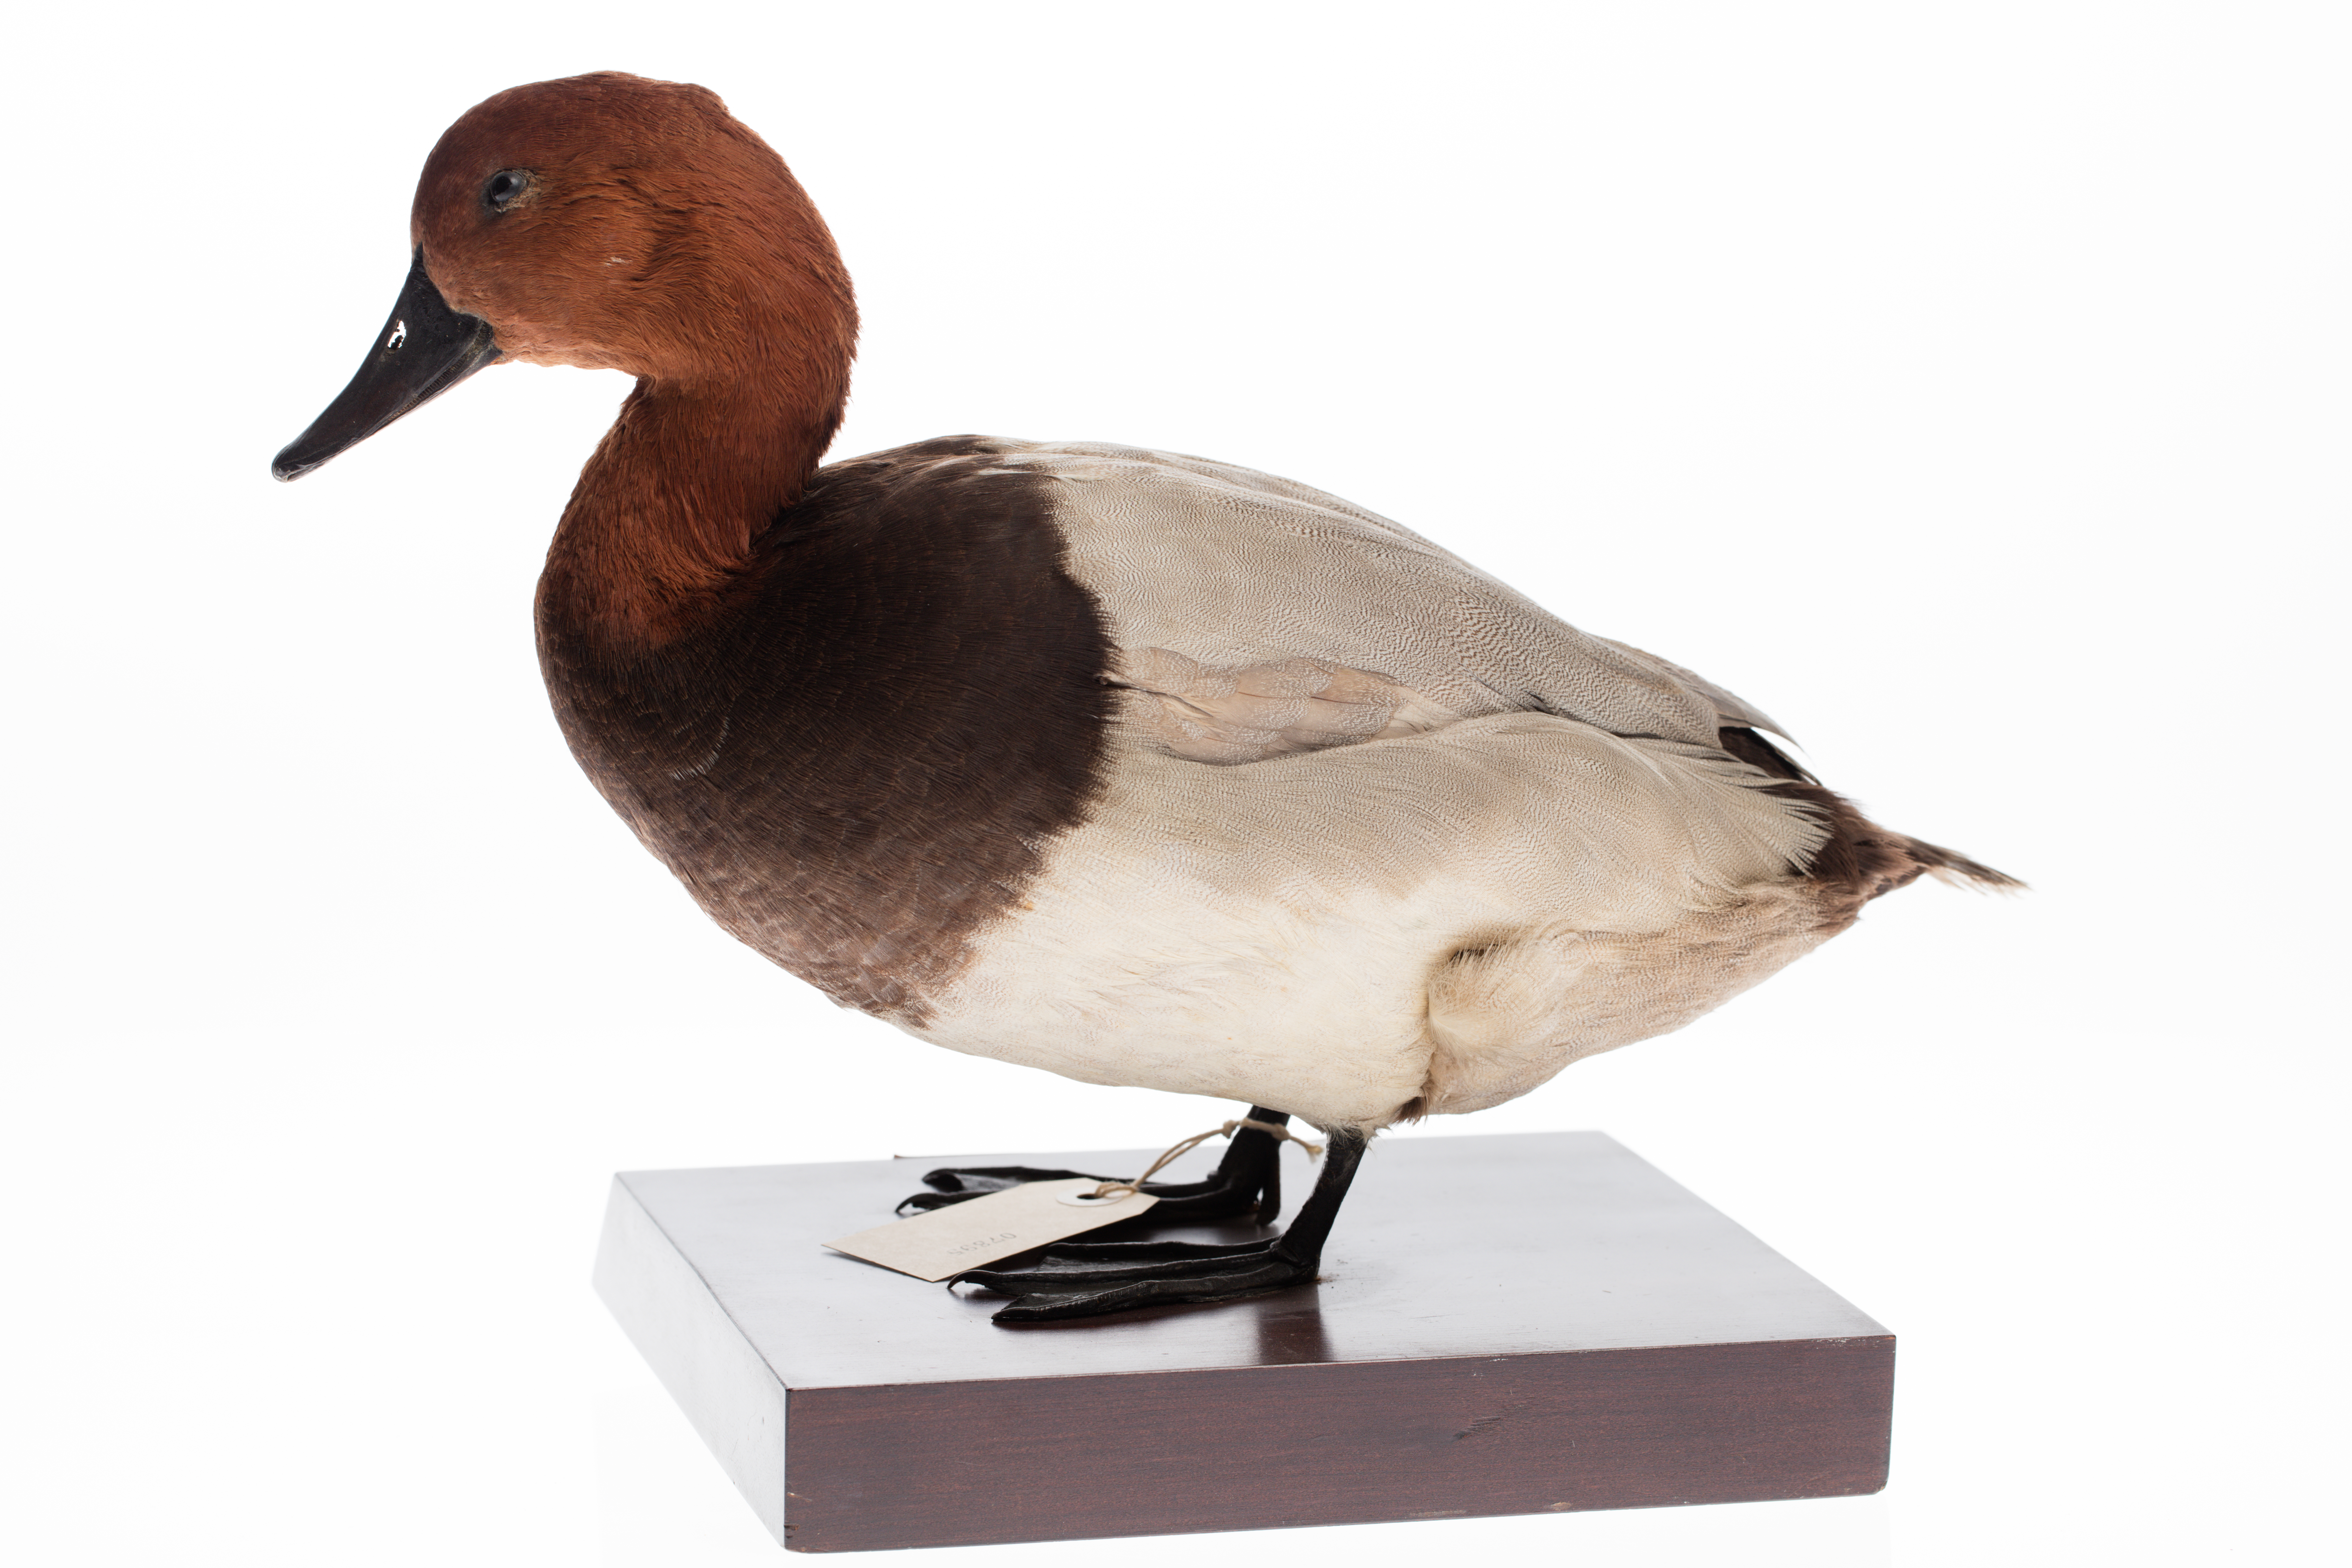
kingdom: Animalia
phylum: Chordata
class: Aves
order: Anseriformes
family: Anatidae
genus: Aythya
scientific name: Aythya ferina
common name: Common pochard
